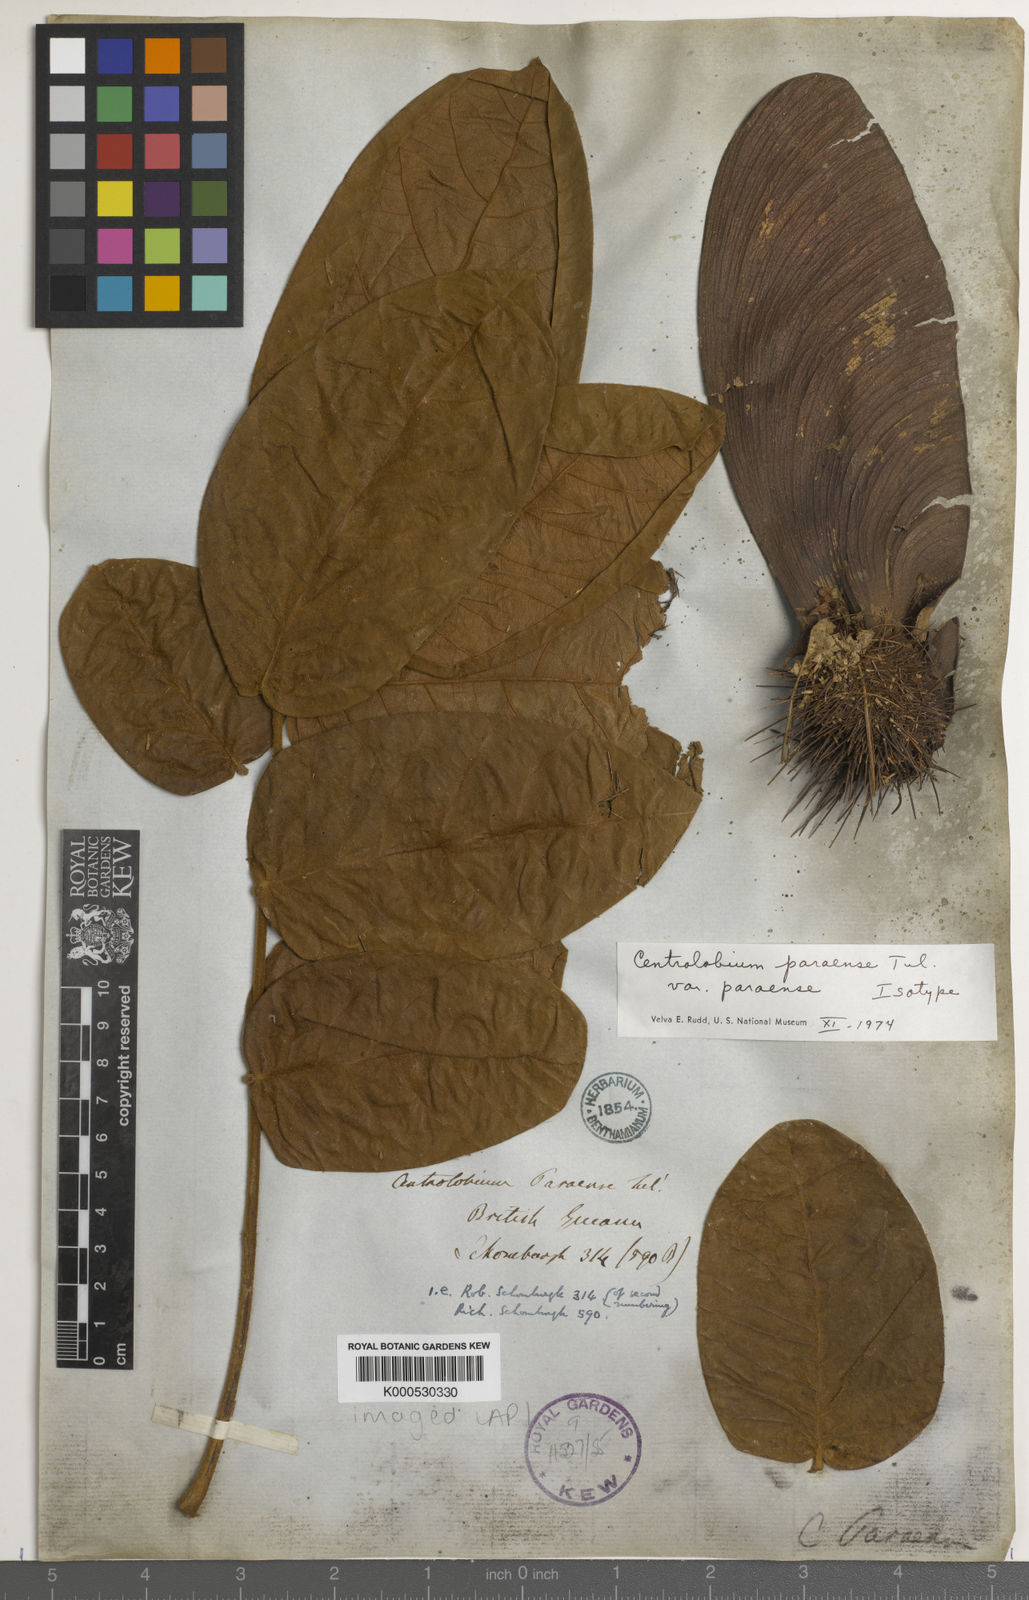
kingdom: Plantae
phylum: Tracheophyta
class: Magnoliopsida
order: Fabales
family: Fabaceae
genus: Centrolobium
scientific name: Centrolobium paraense
